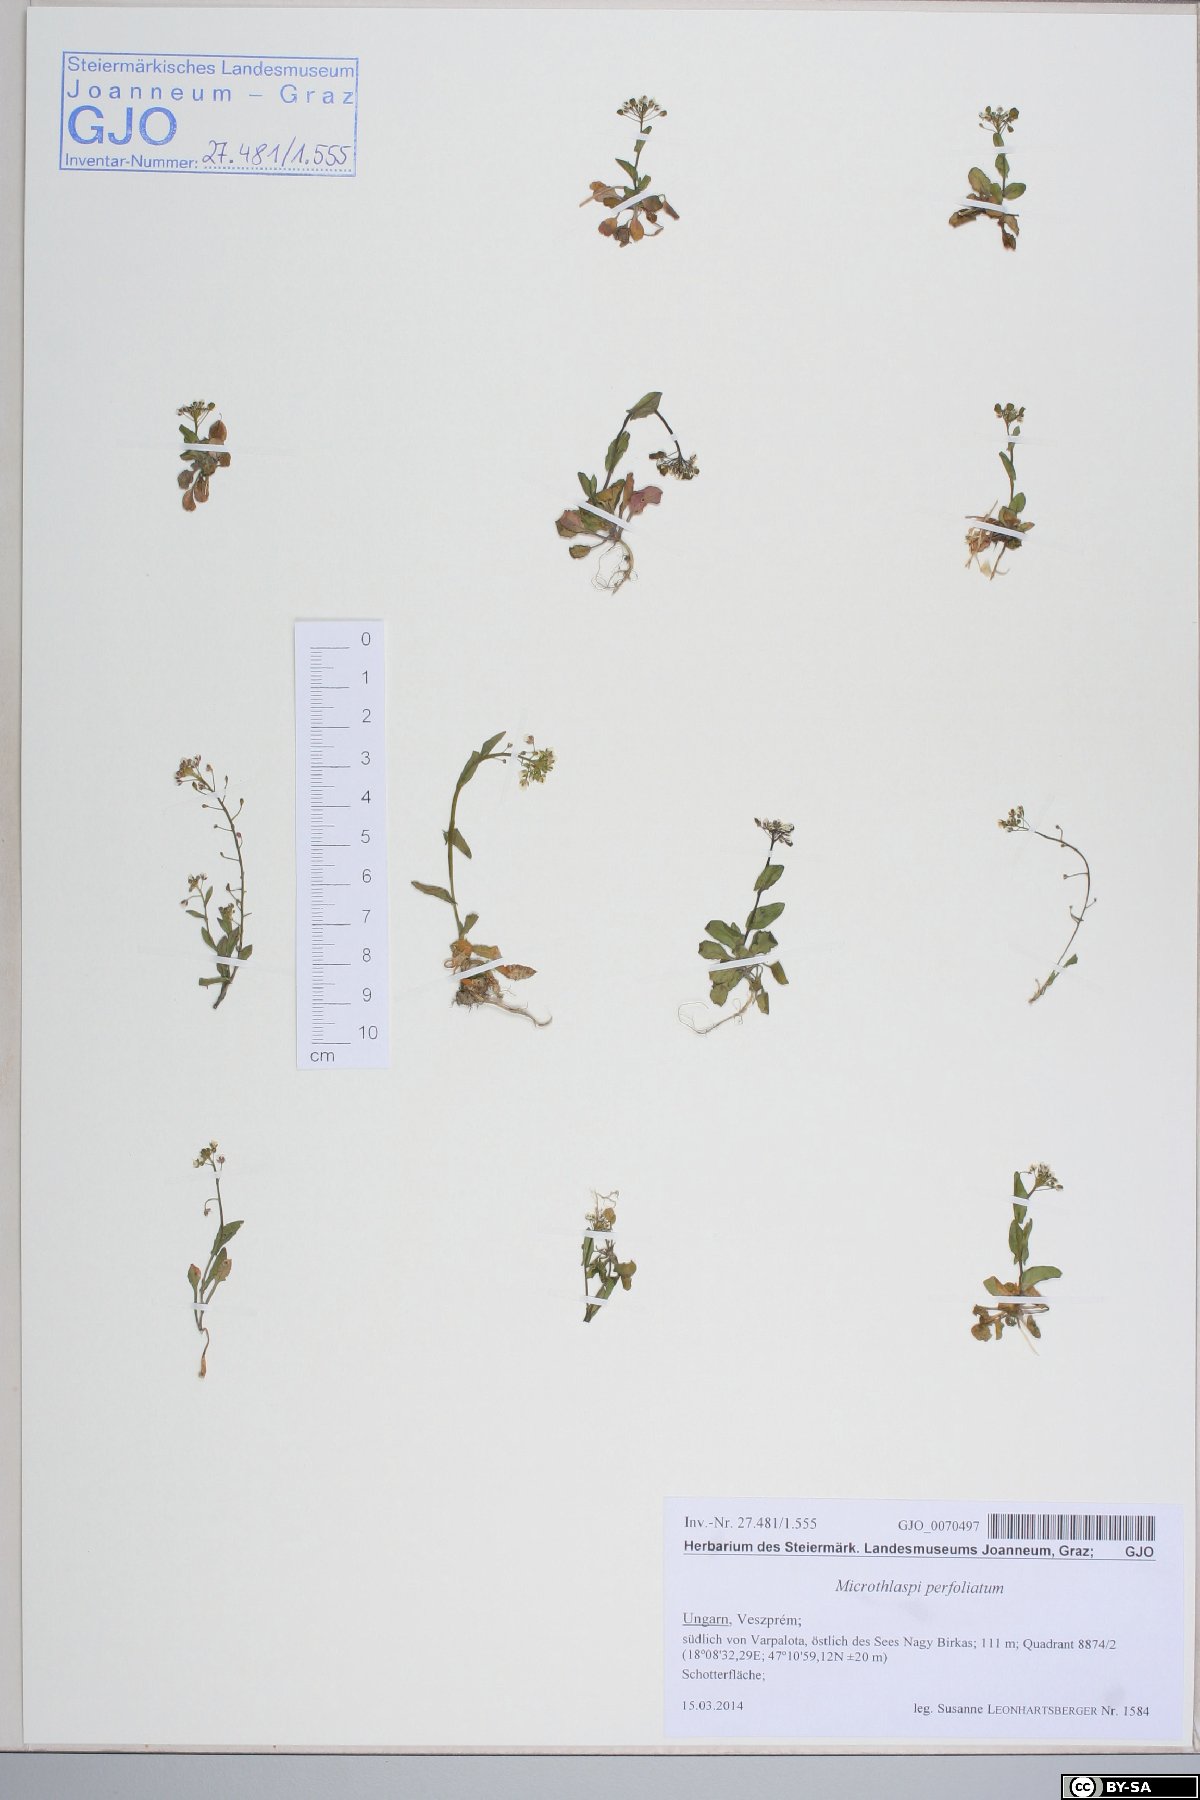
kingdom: Plantae
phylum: Tracheophyta
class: Magnoliopsida
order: Brassicales
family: Brassicaceae
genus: Noccaea
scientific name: Noccaea perfoliata
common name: Perfoliate pennycress
